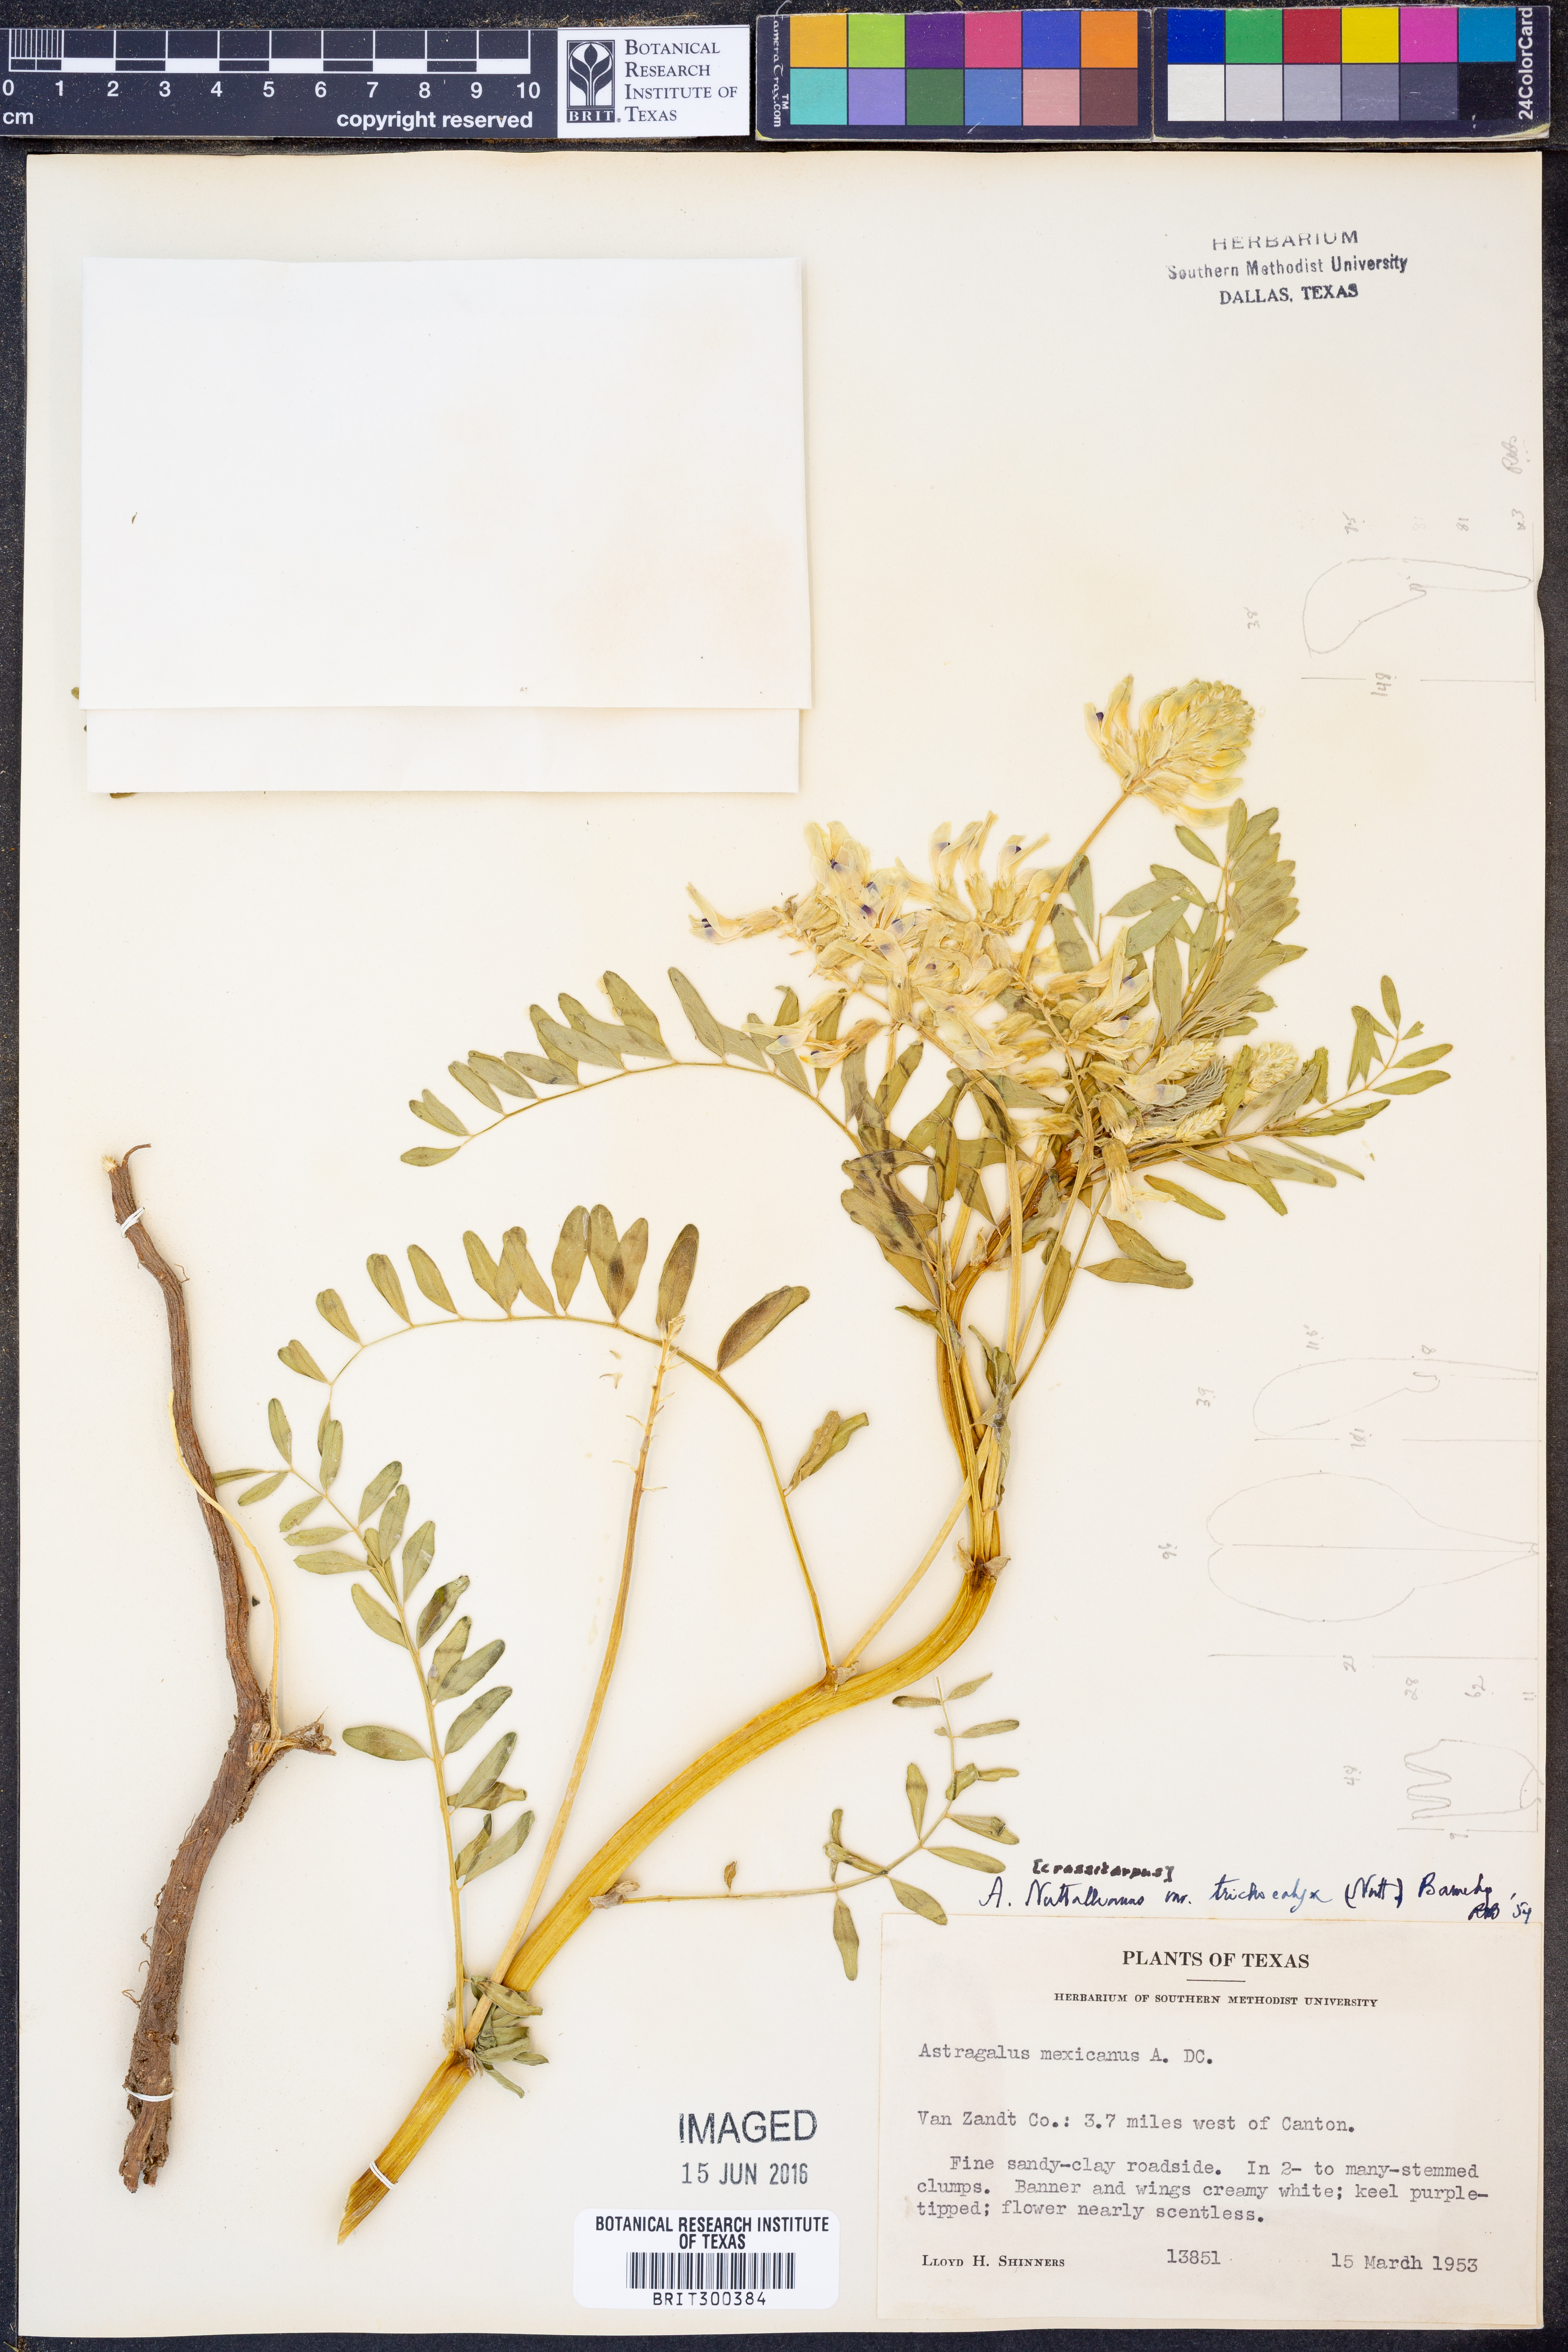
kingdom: Plantae
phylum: Tracheophyta
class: Magnoliopsida
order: Fabales
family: Fabaceae
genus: Astragalus
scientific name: Astragalus crassicarpus
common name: Ground-plum milk-vetch
